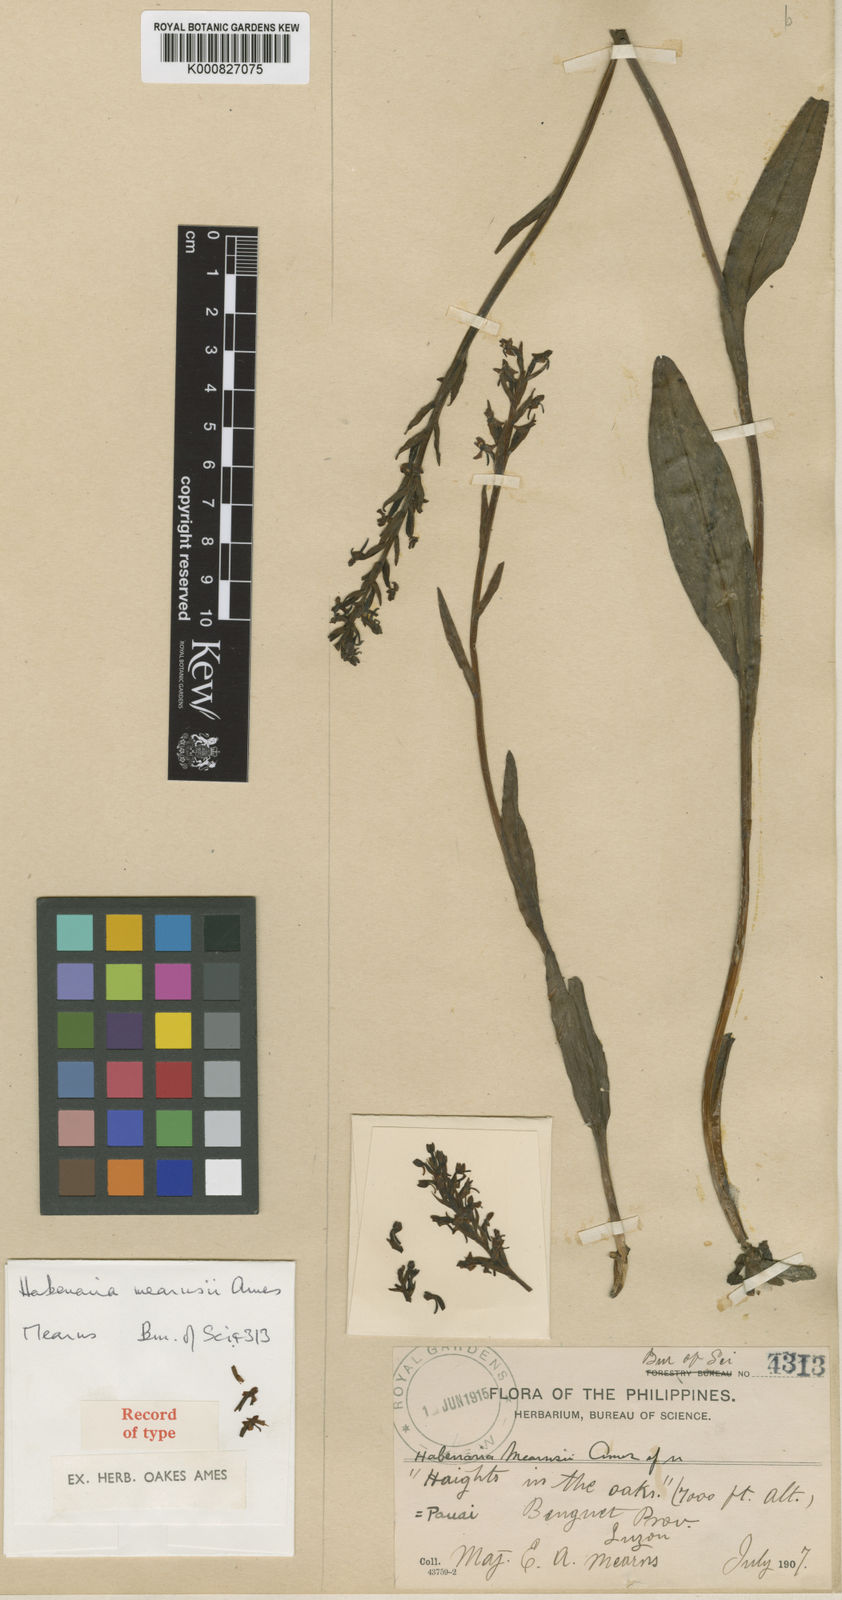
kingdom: Plantae
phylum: Tracheophyta
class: Liliopsida
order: Asparagales
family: Orchidaceae
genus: Platanthera
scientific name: Platanthera mearnsii
